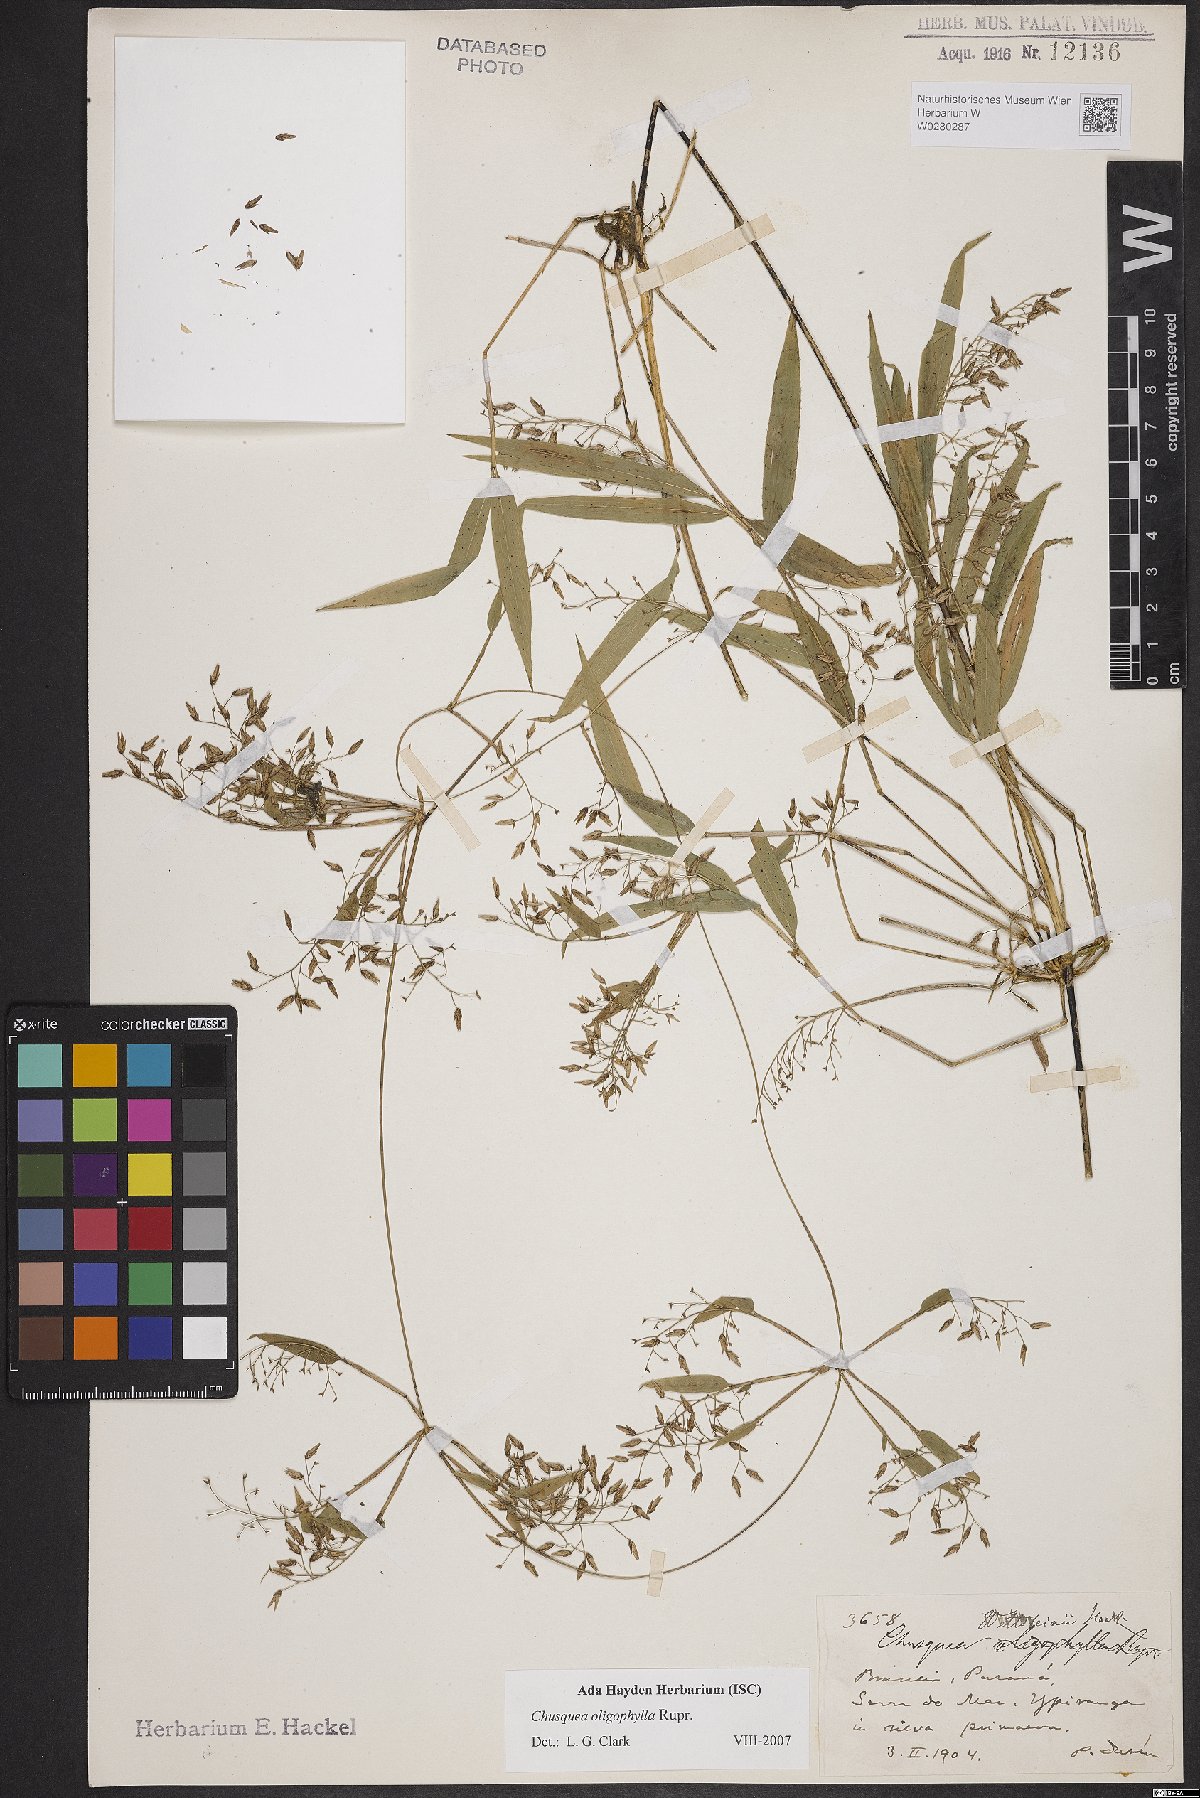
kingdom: Plantae
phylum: Tracheophyta
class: Liliopsida
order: Poales
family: Poaceae
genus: Chusquea
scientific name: Chusquea oligophylla
